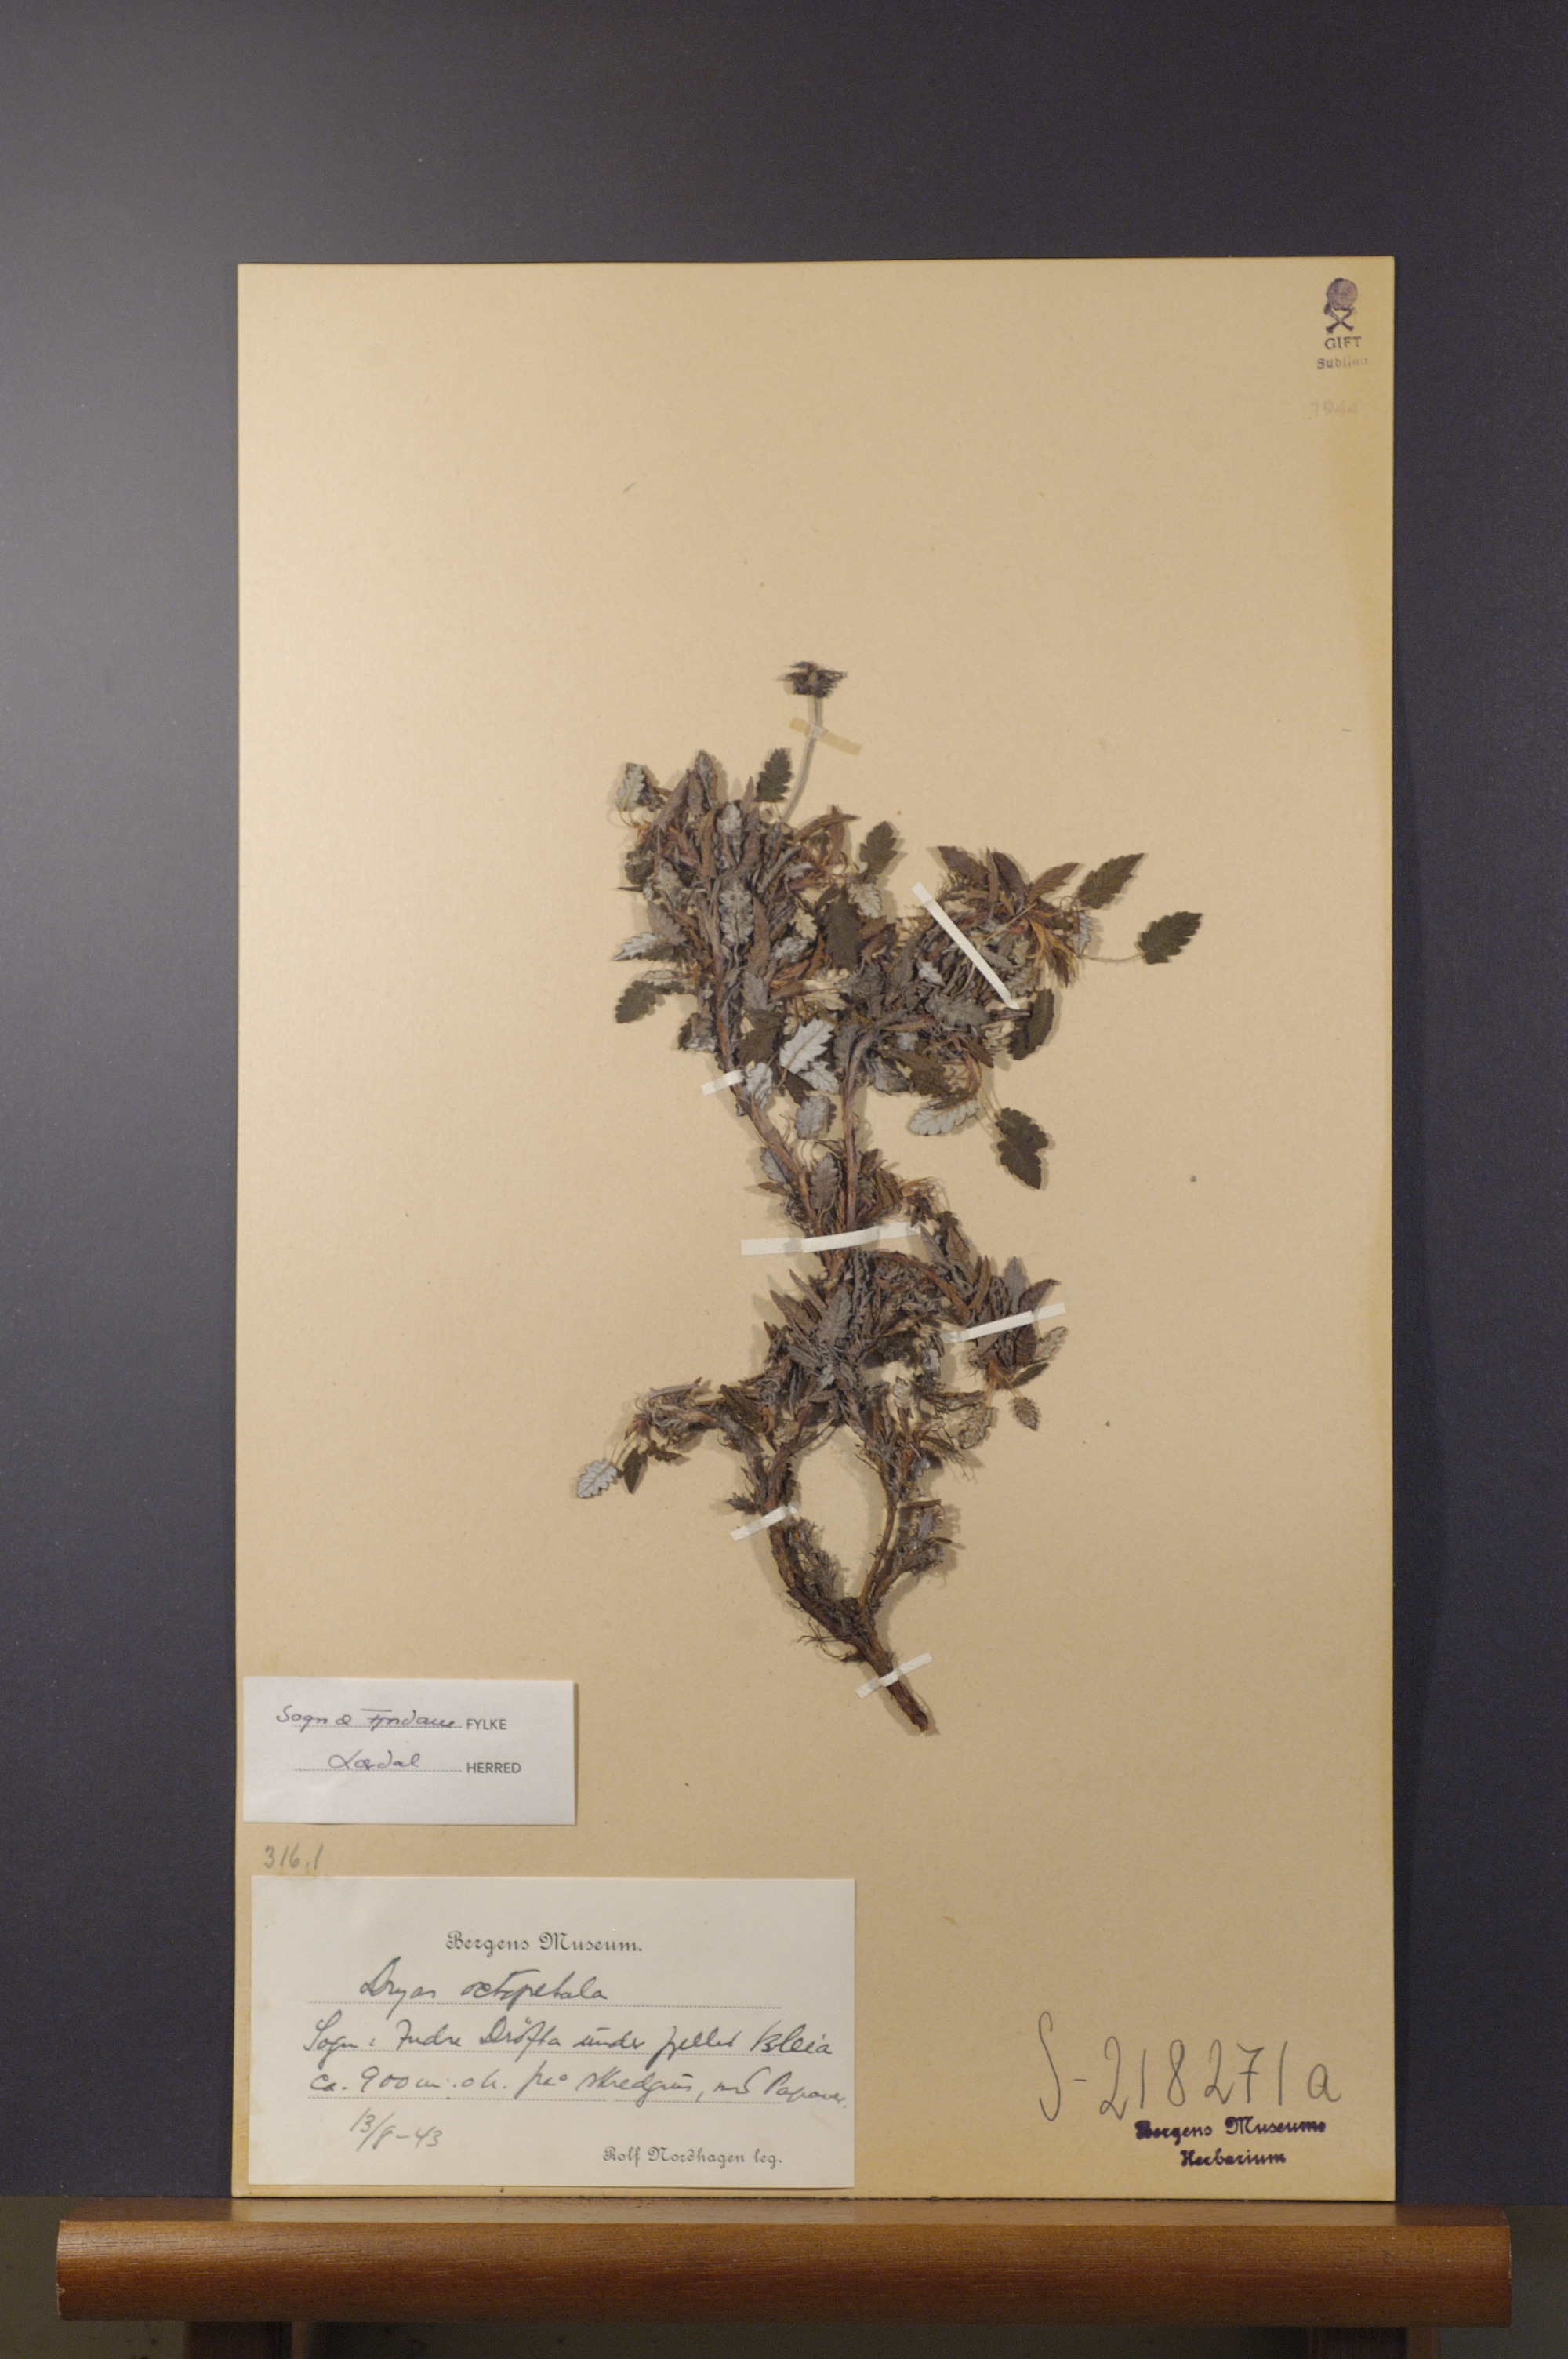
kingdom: Plantae
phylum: Tracheophyta
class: Magnoliopsida
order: Rosales
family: Rosaceae
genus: Dryas
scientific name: Dryas octopetala
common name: Eight-petal mountain-avens
